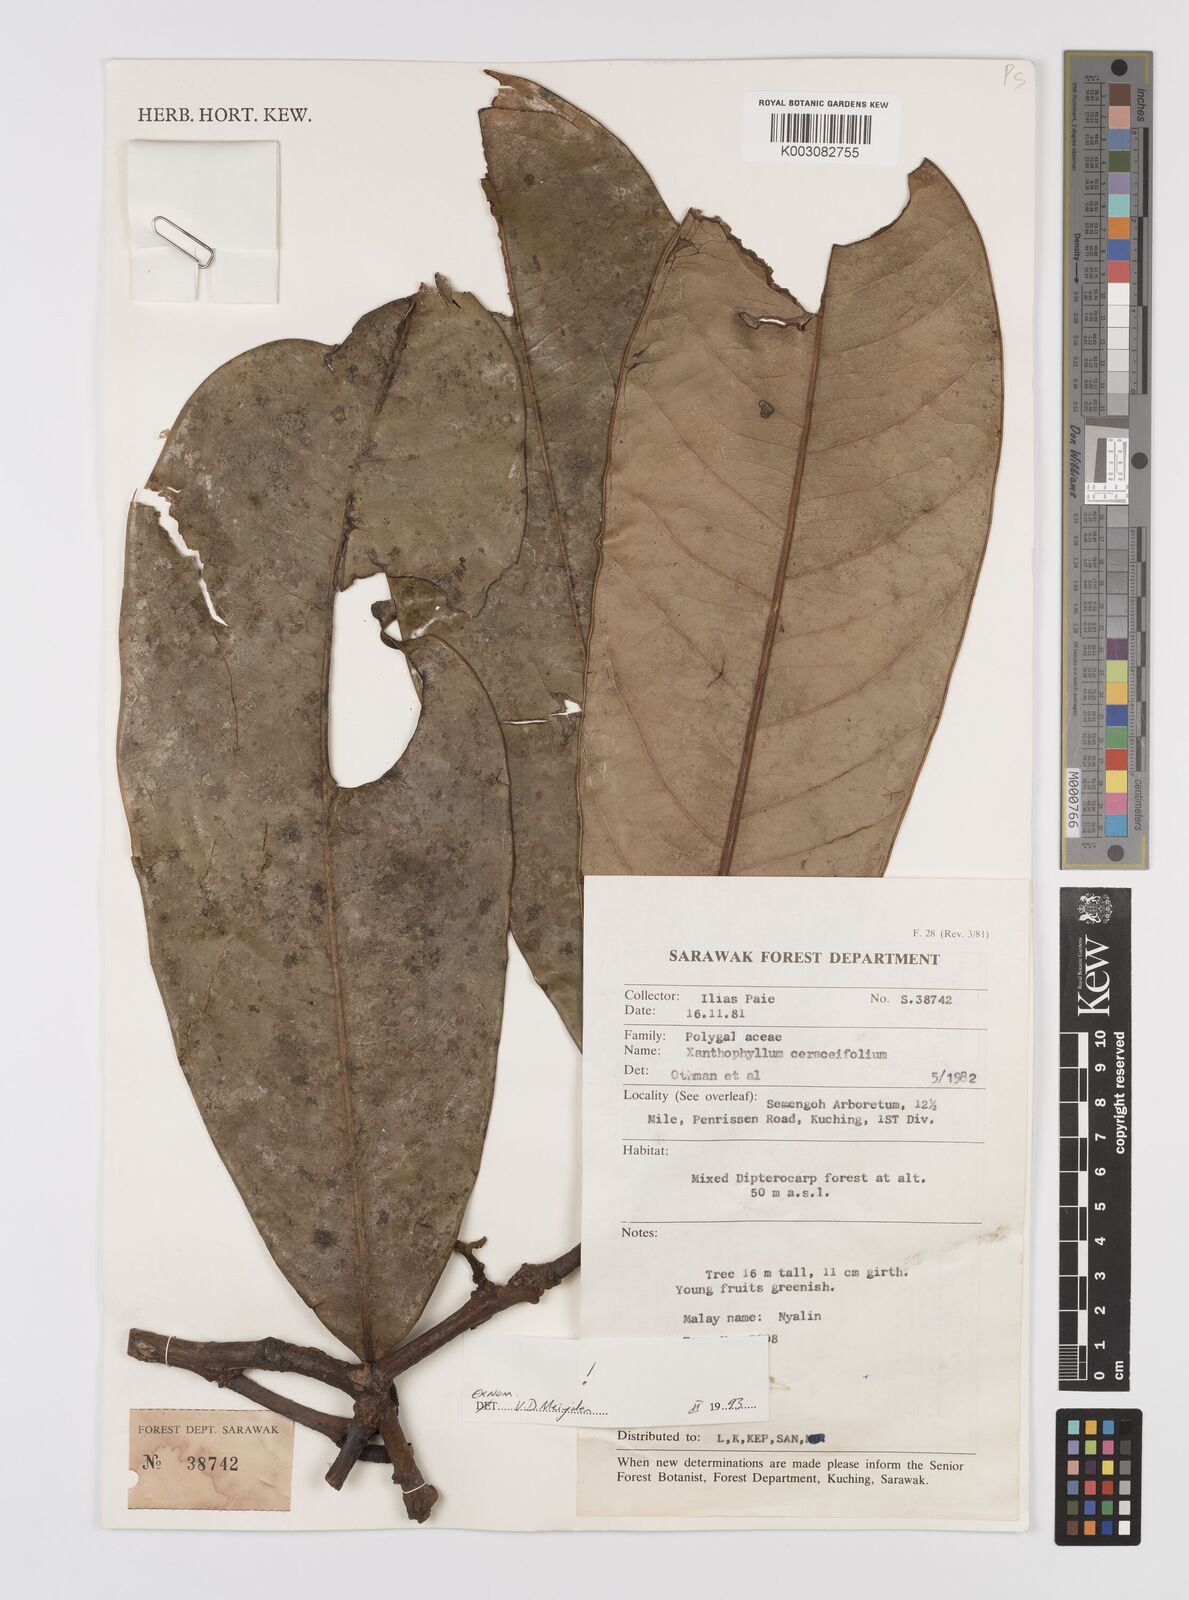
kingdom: Plantae
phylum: Tracheophyta
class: Magnoliopsida
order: Fabales
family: Polygalaceae
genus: Xanthophyllum
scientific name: Xanthophyllum
